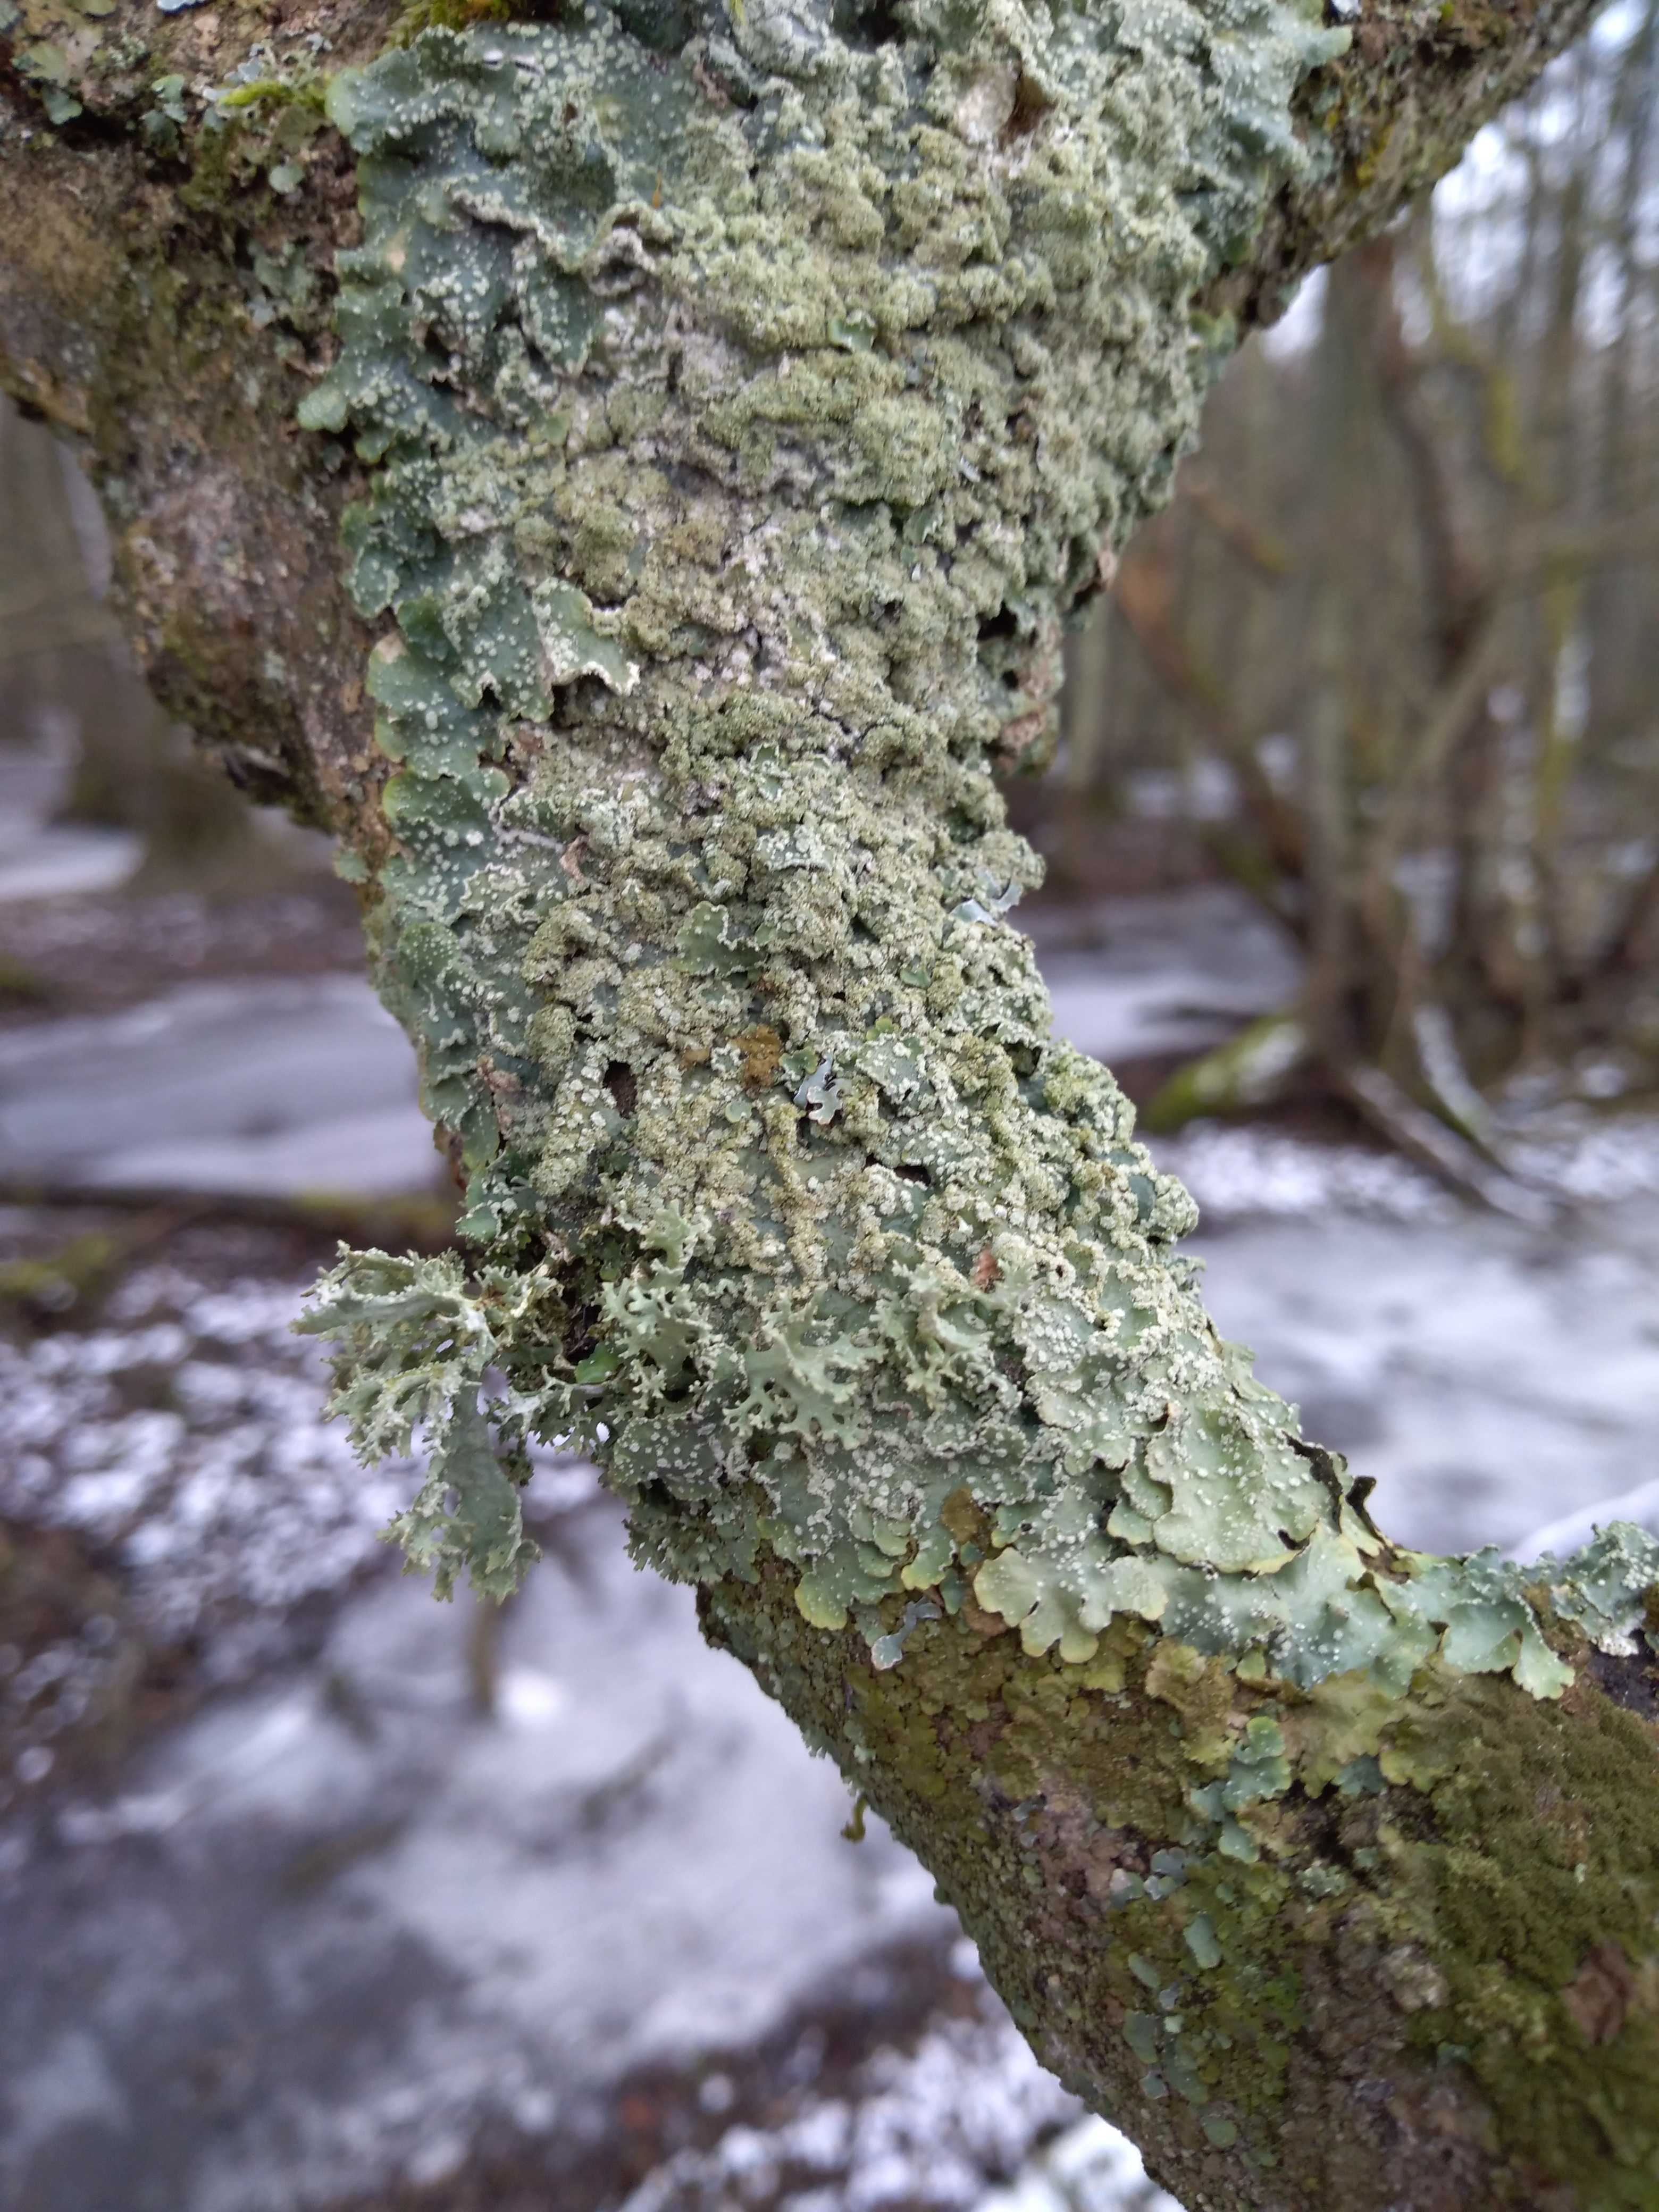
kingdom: Fungi
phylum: Ascomycota
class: Lecanoromycetes
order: Lecanorales
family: Parmeliaceae
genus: Punctelia
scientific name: Punctelia subrudecta
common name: punkt-skållav
